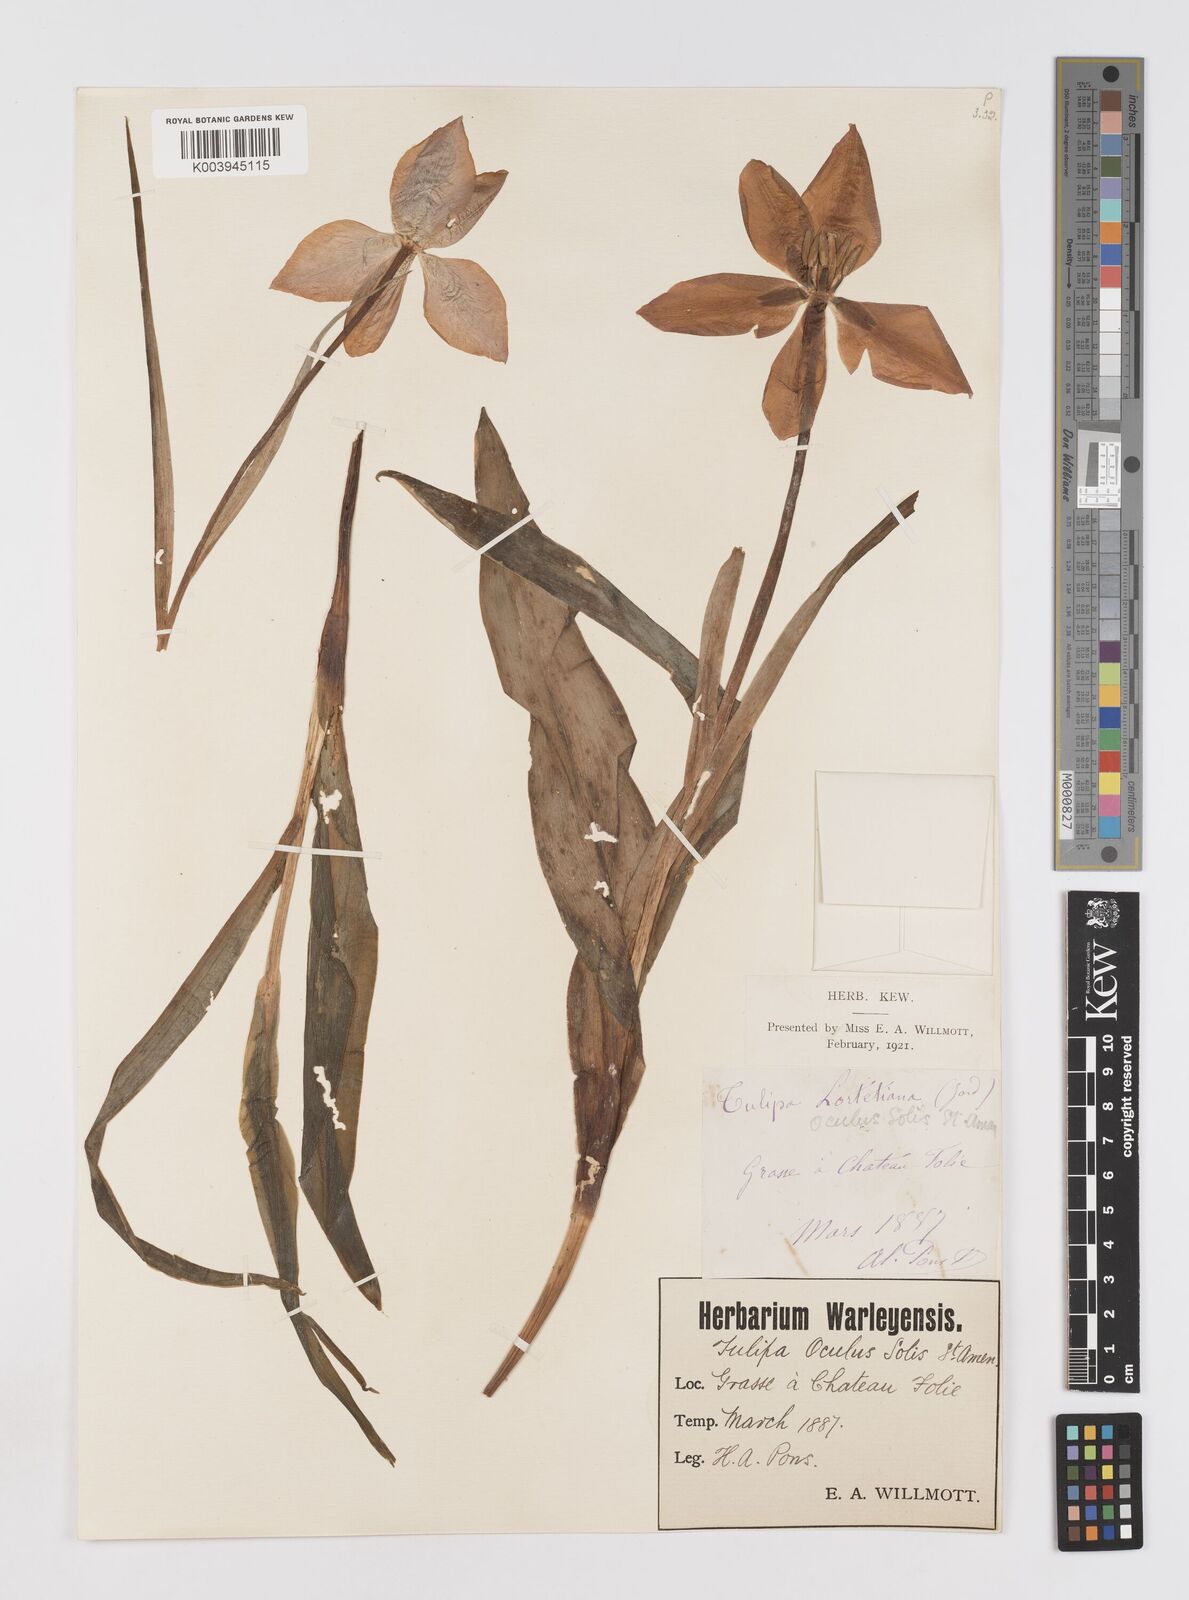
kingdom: Plantae
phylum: Tracheophyta
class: Liliopsida
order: Liliales
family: Liliaceae
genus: Tulipa
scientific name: Tulipa
